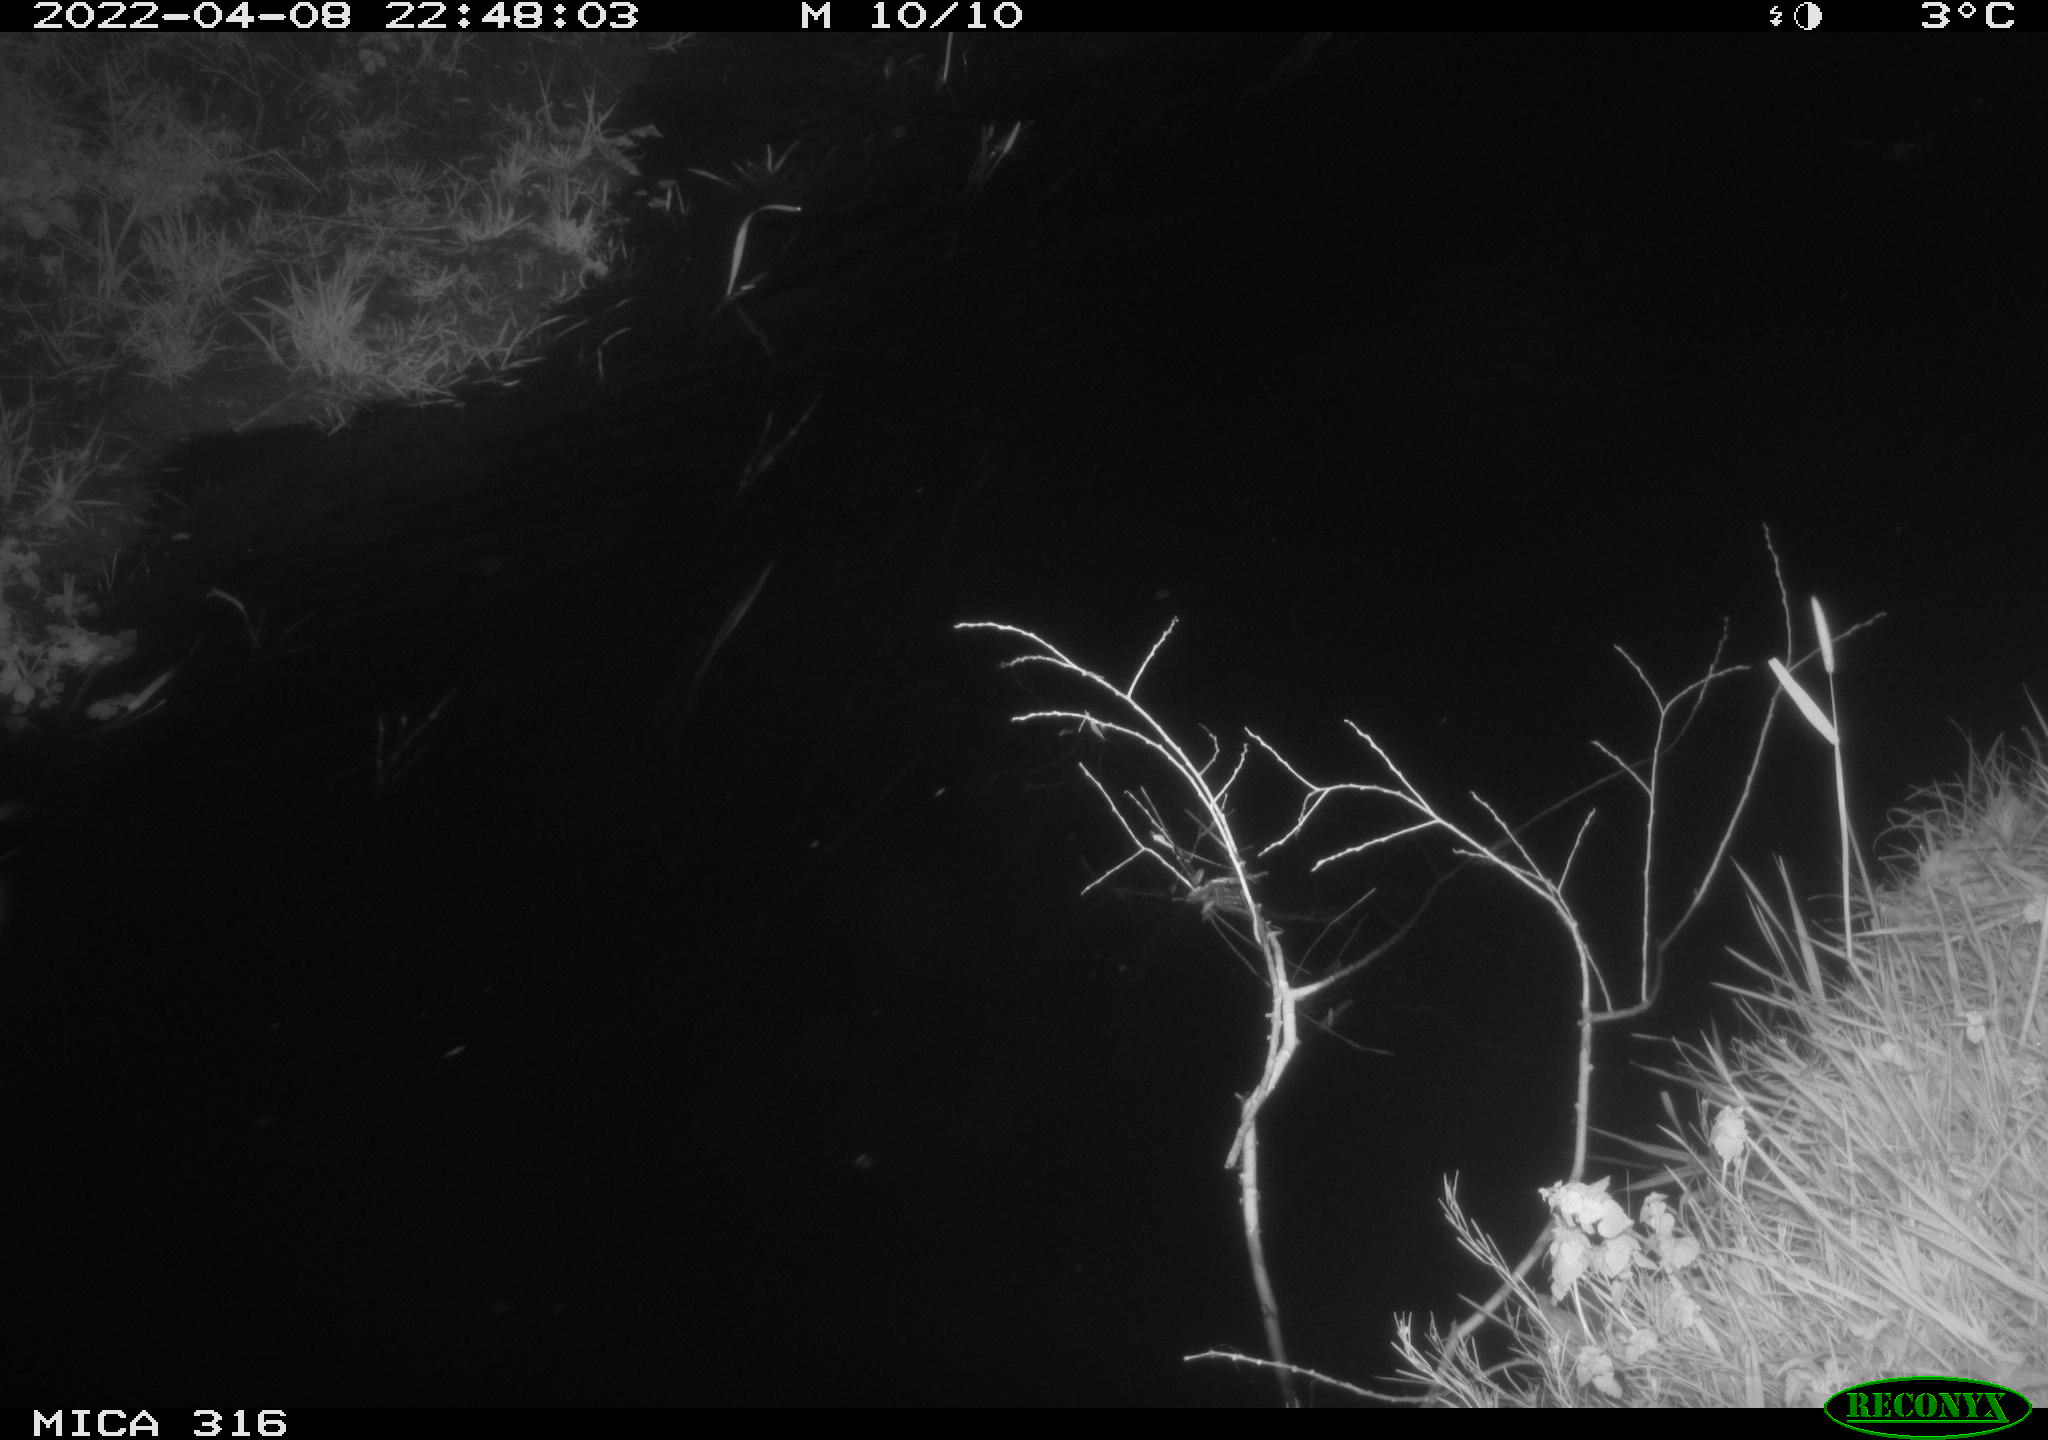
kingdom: Animalia
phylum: Chordata
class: Aves
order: Anseriformes
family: Anatidae
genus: Anas
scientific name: Anas platyrhynchos
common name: Mallard
